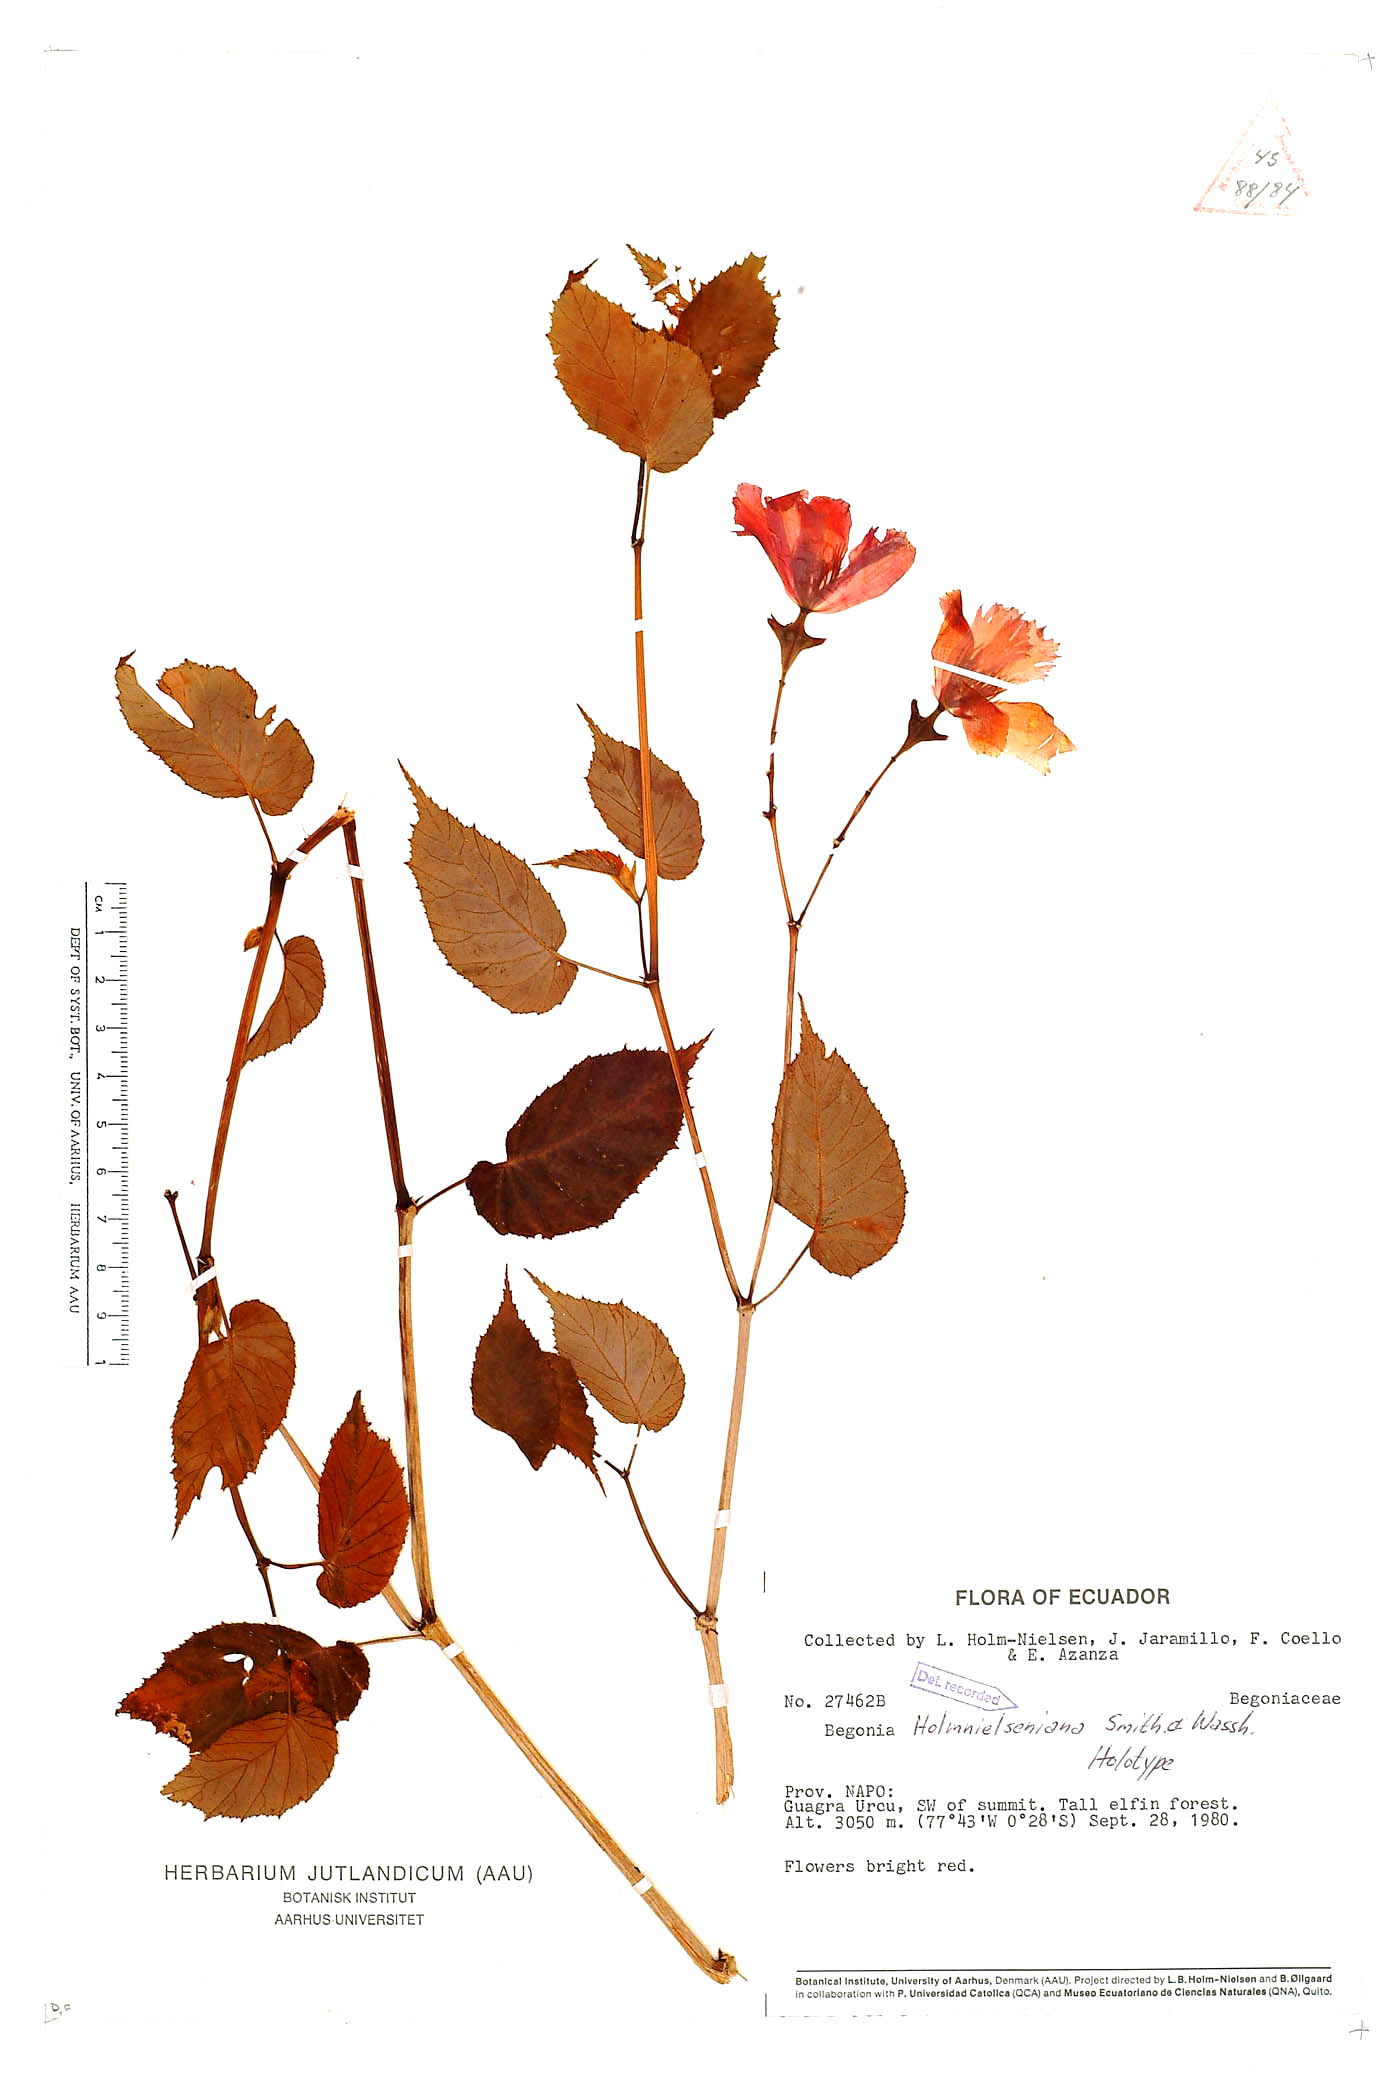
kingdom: Plantae
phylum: Tracheophyta
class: Magnoliopsida
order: Cucurbitales
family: Begoniaceae
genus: Begonia
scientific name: Begonia holmnielseniana
